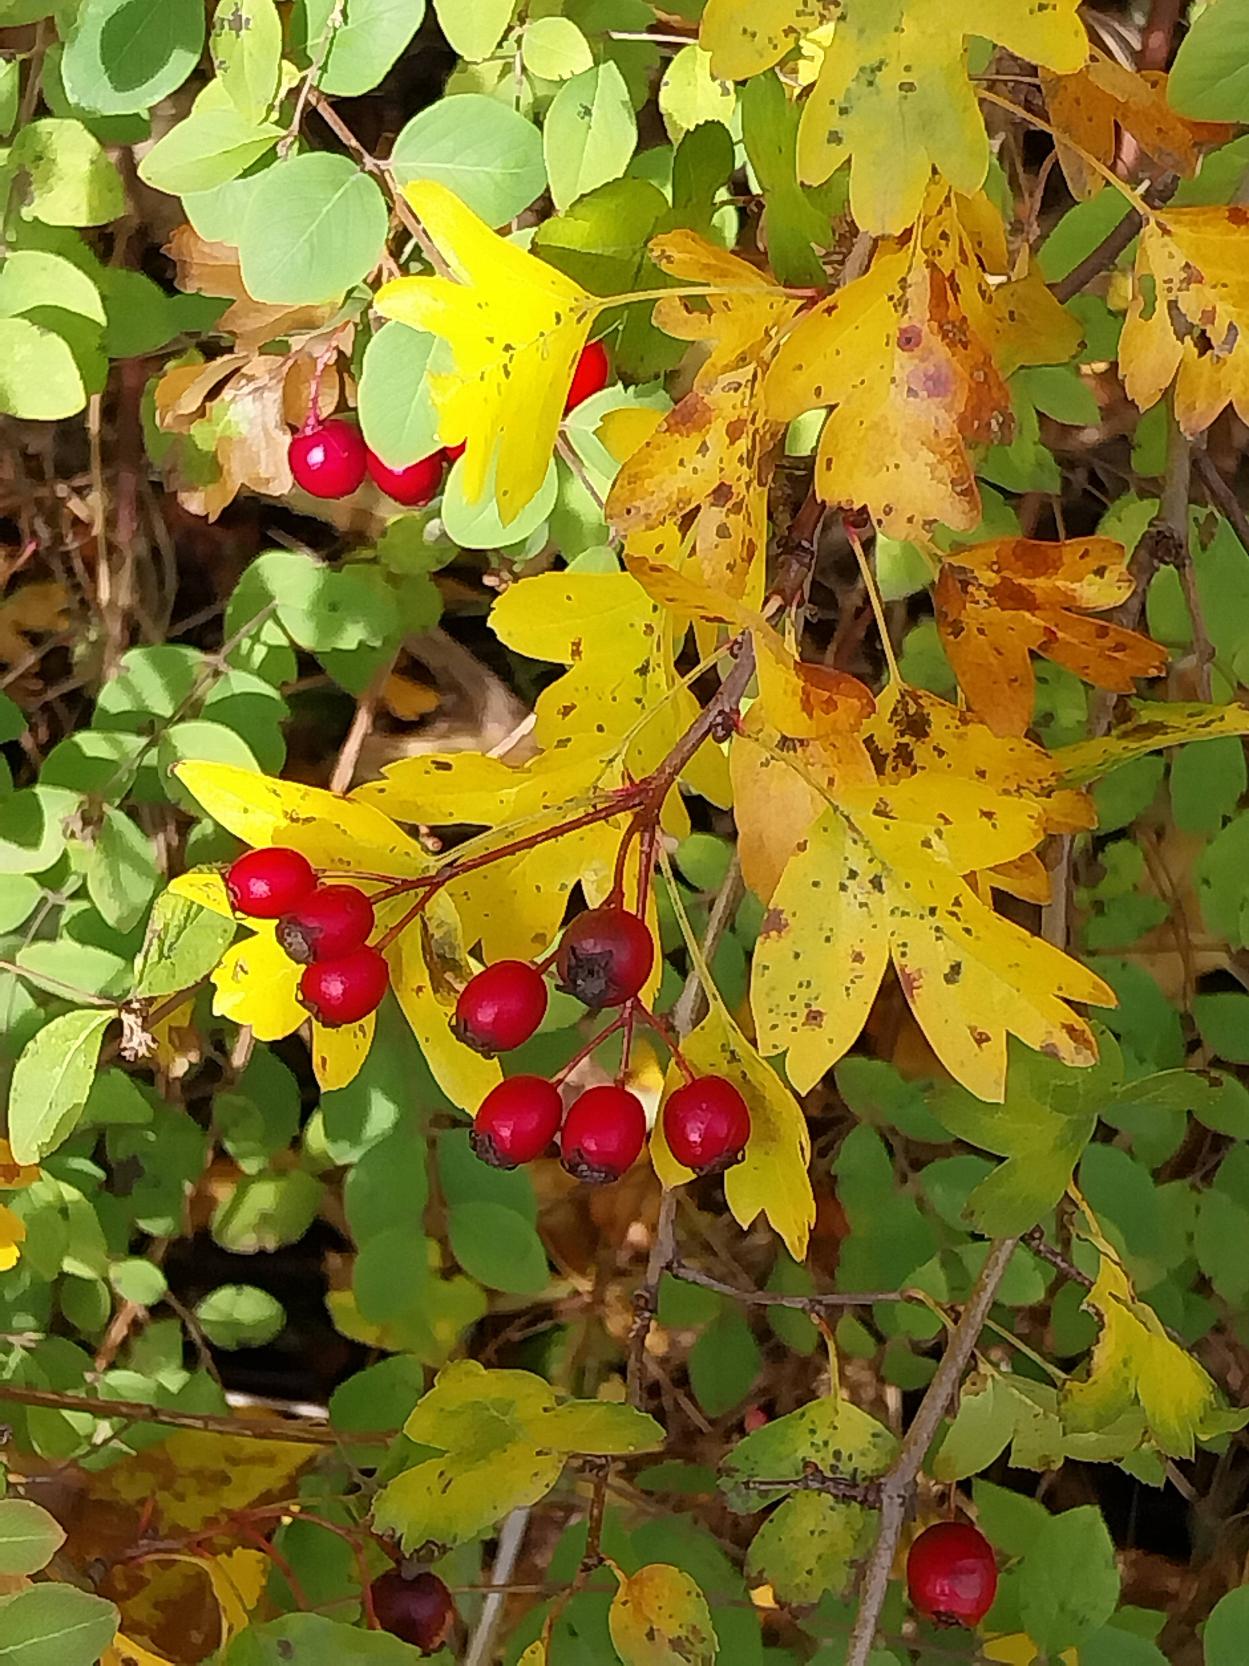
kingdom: Plantae
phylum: Tracheophyta
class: Magnoliopsida
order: Rosales
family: Rosaceae
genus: Crataegus
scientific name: Crataegus monogyna
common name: Engriflet hvidtjørn
